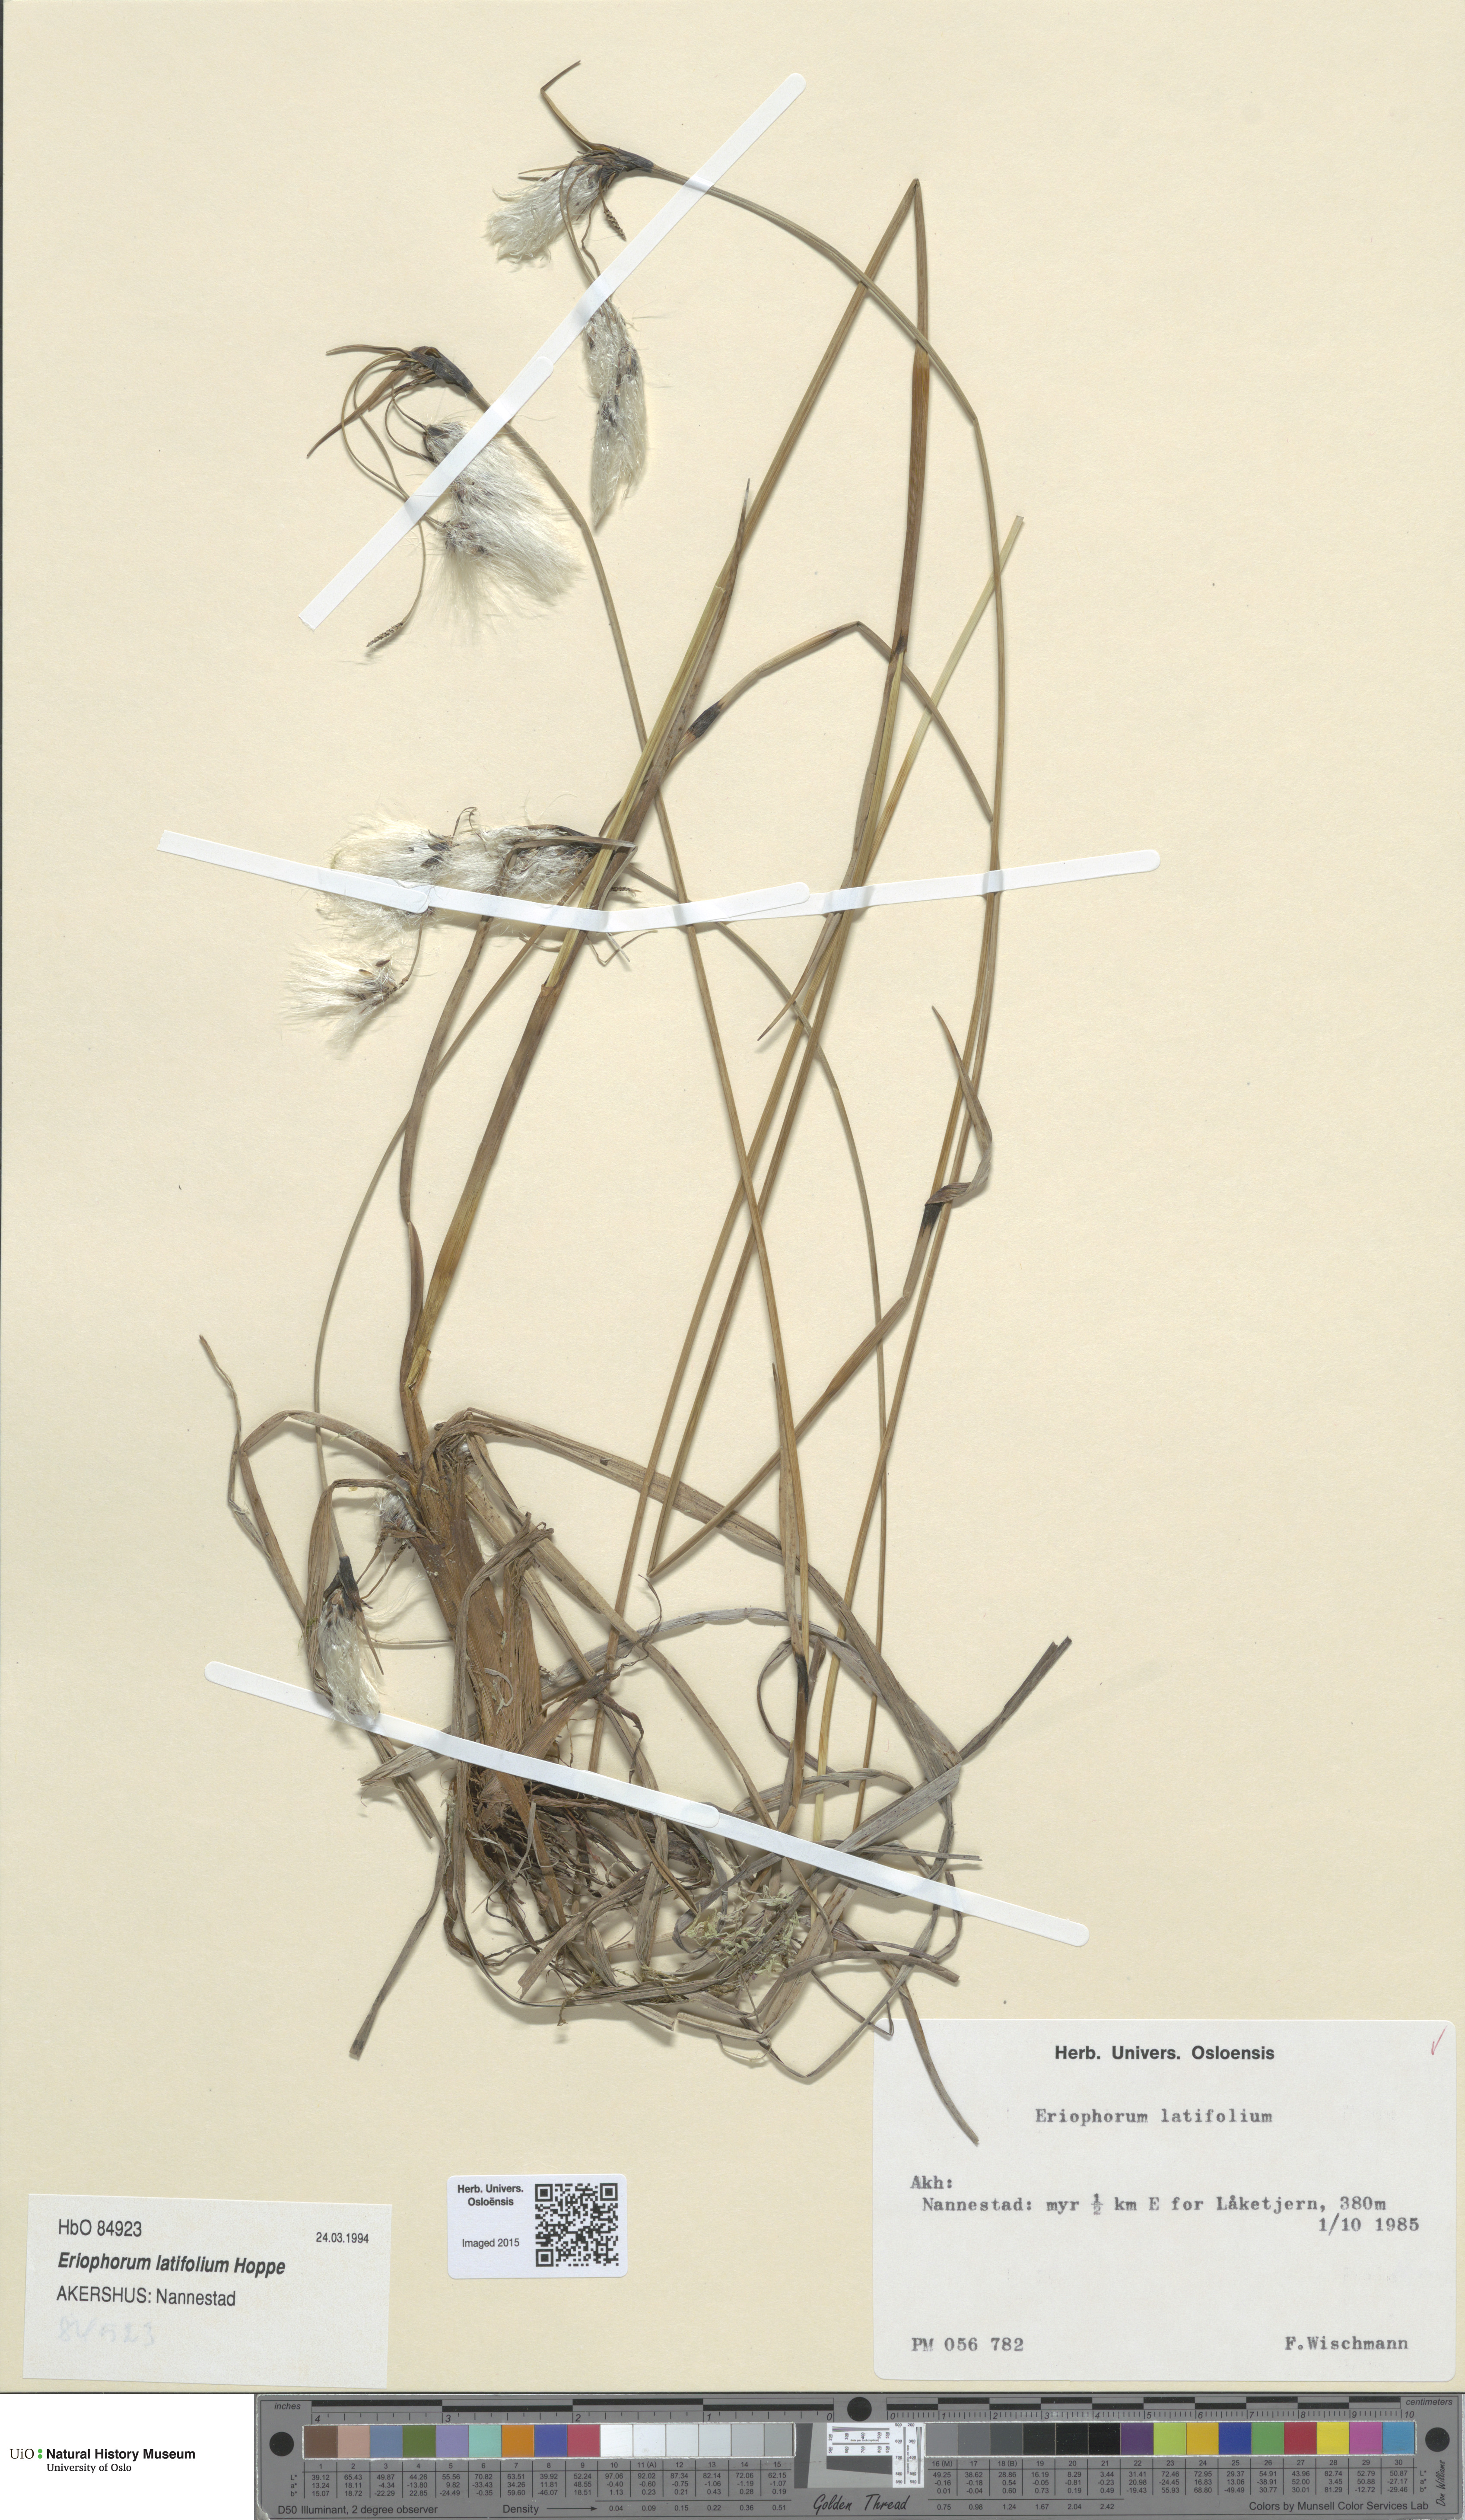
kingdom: Plantae
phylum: Tracheophyta
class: Liliopsida
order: Poales
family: Cyperaceae
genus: Eriophorum
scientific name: Eriophorum latifolium
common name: Broad-leaved cottongrass
